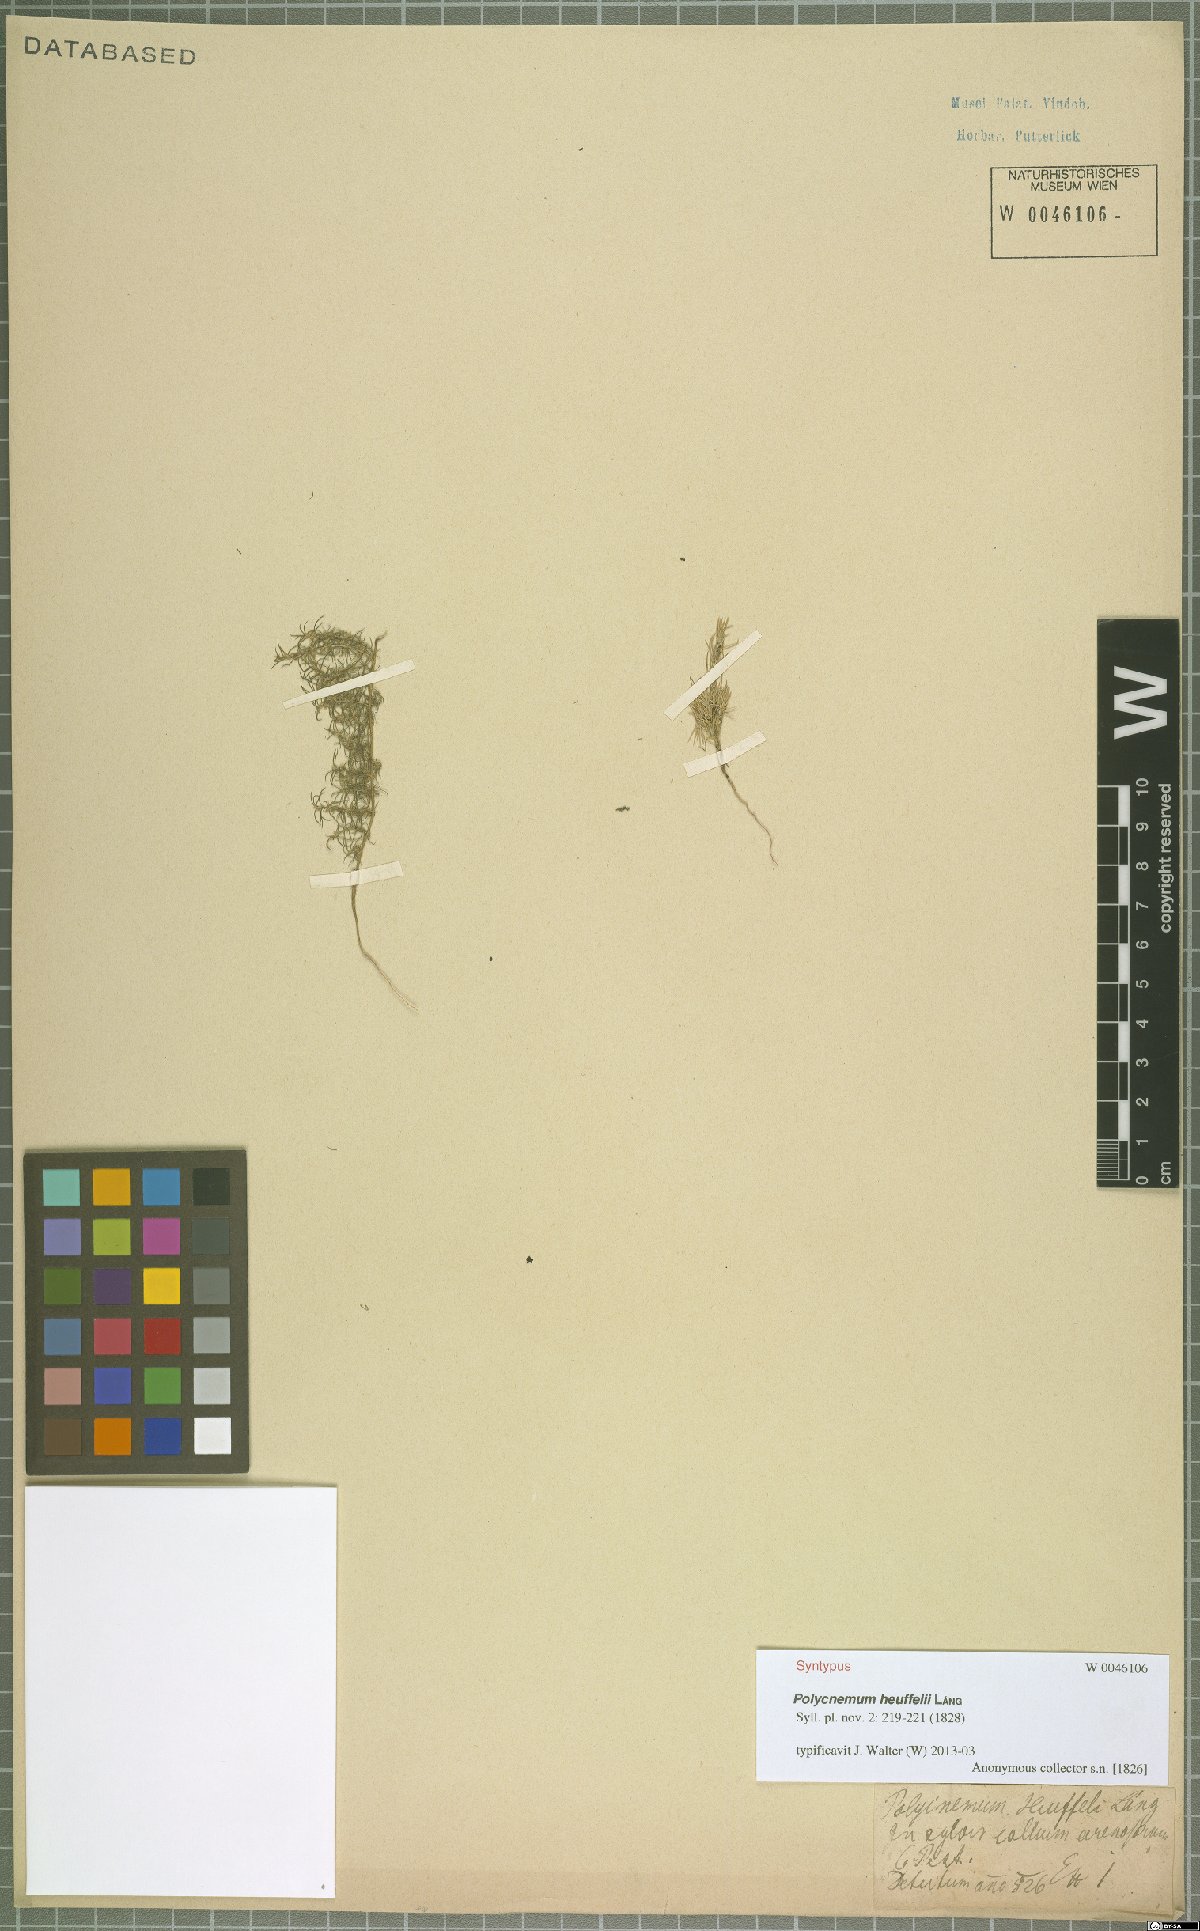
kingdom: Plantae
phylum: Tracheophyta
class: Magnoliopsida
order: Caryophyllales
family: Amaranthaceae
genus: Polycnemum
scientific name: Polycnemum heuffelii
